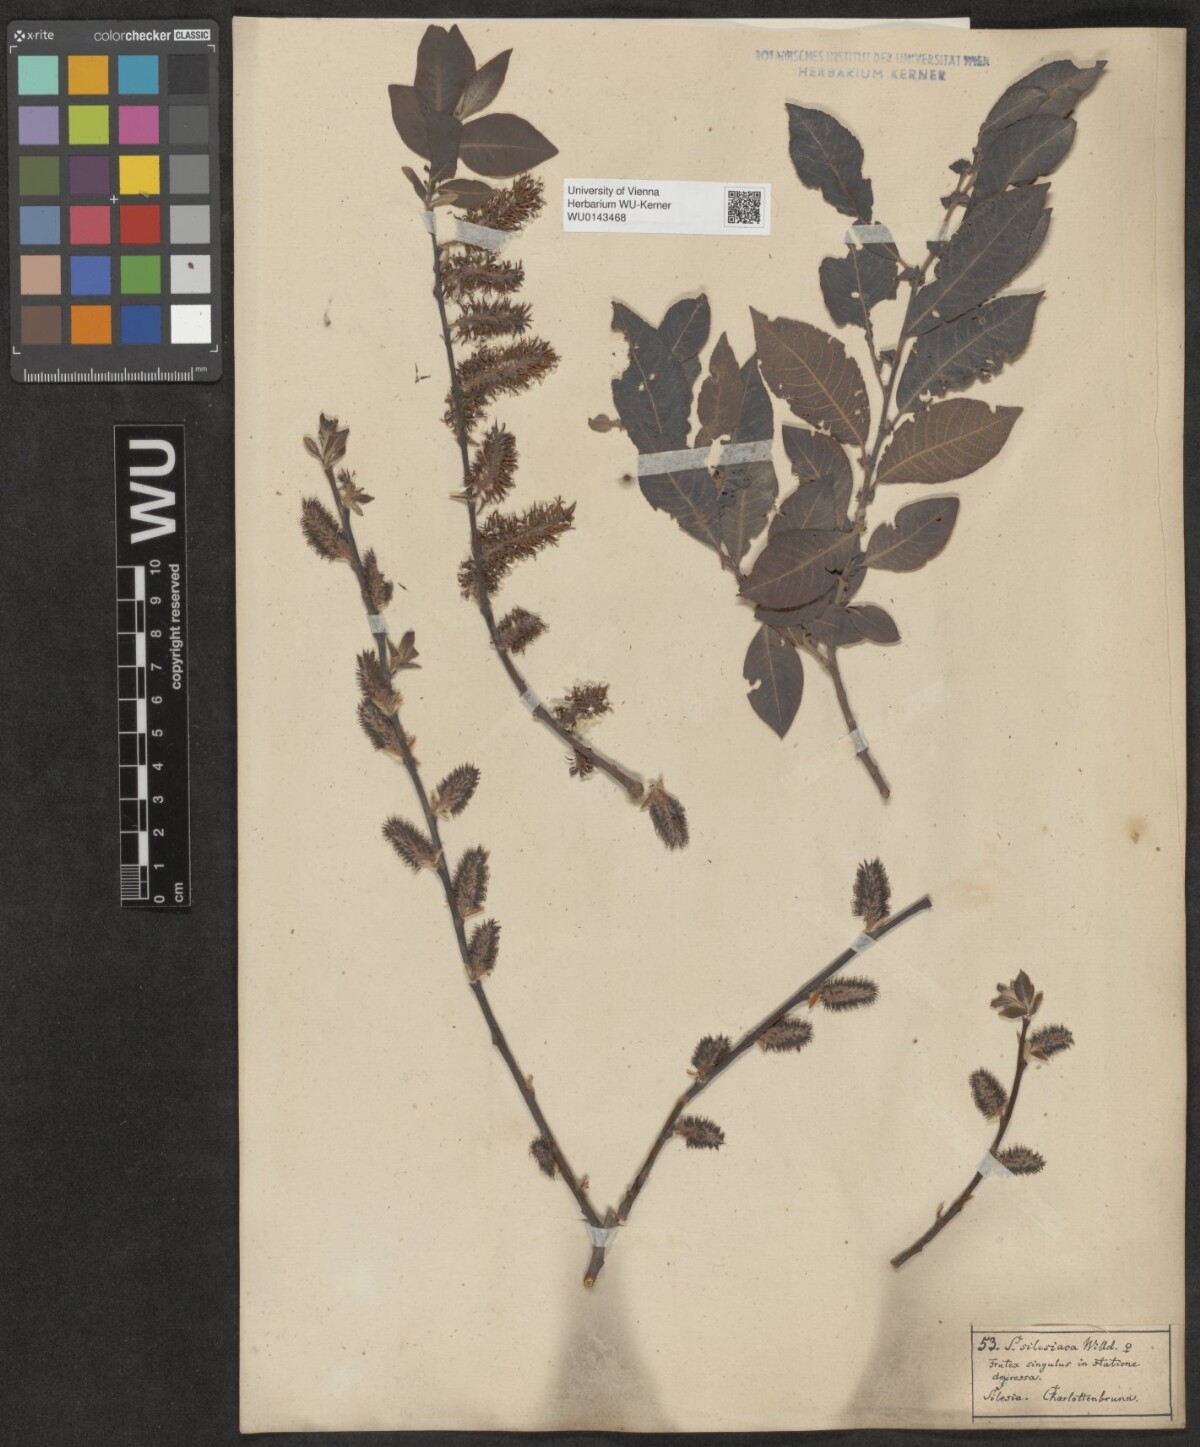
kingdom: Plantae
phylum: Tracheophyta
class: Magnoliopsida
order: Malpighiales
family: Salicaceae
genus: Salix
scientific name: Salix silesiaca
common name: Silesian willow
